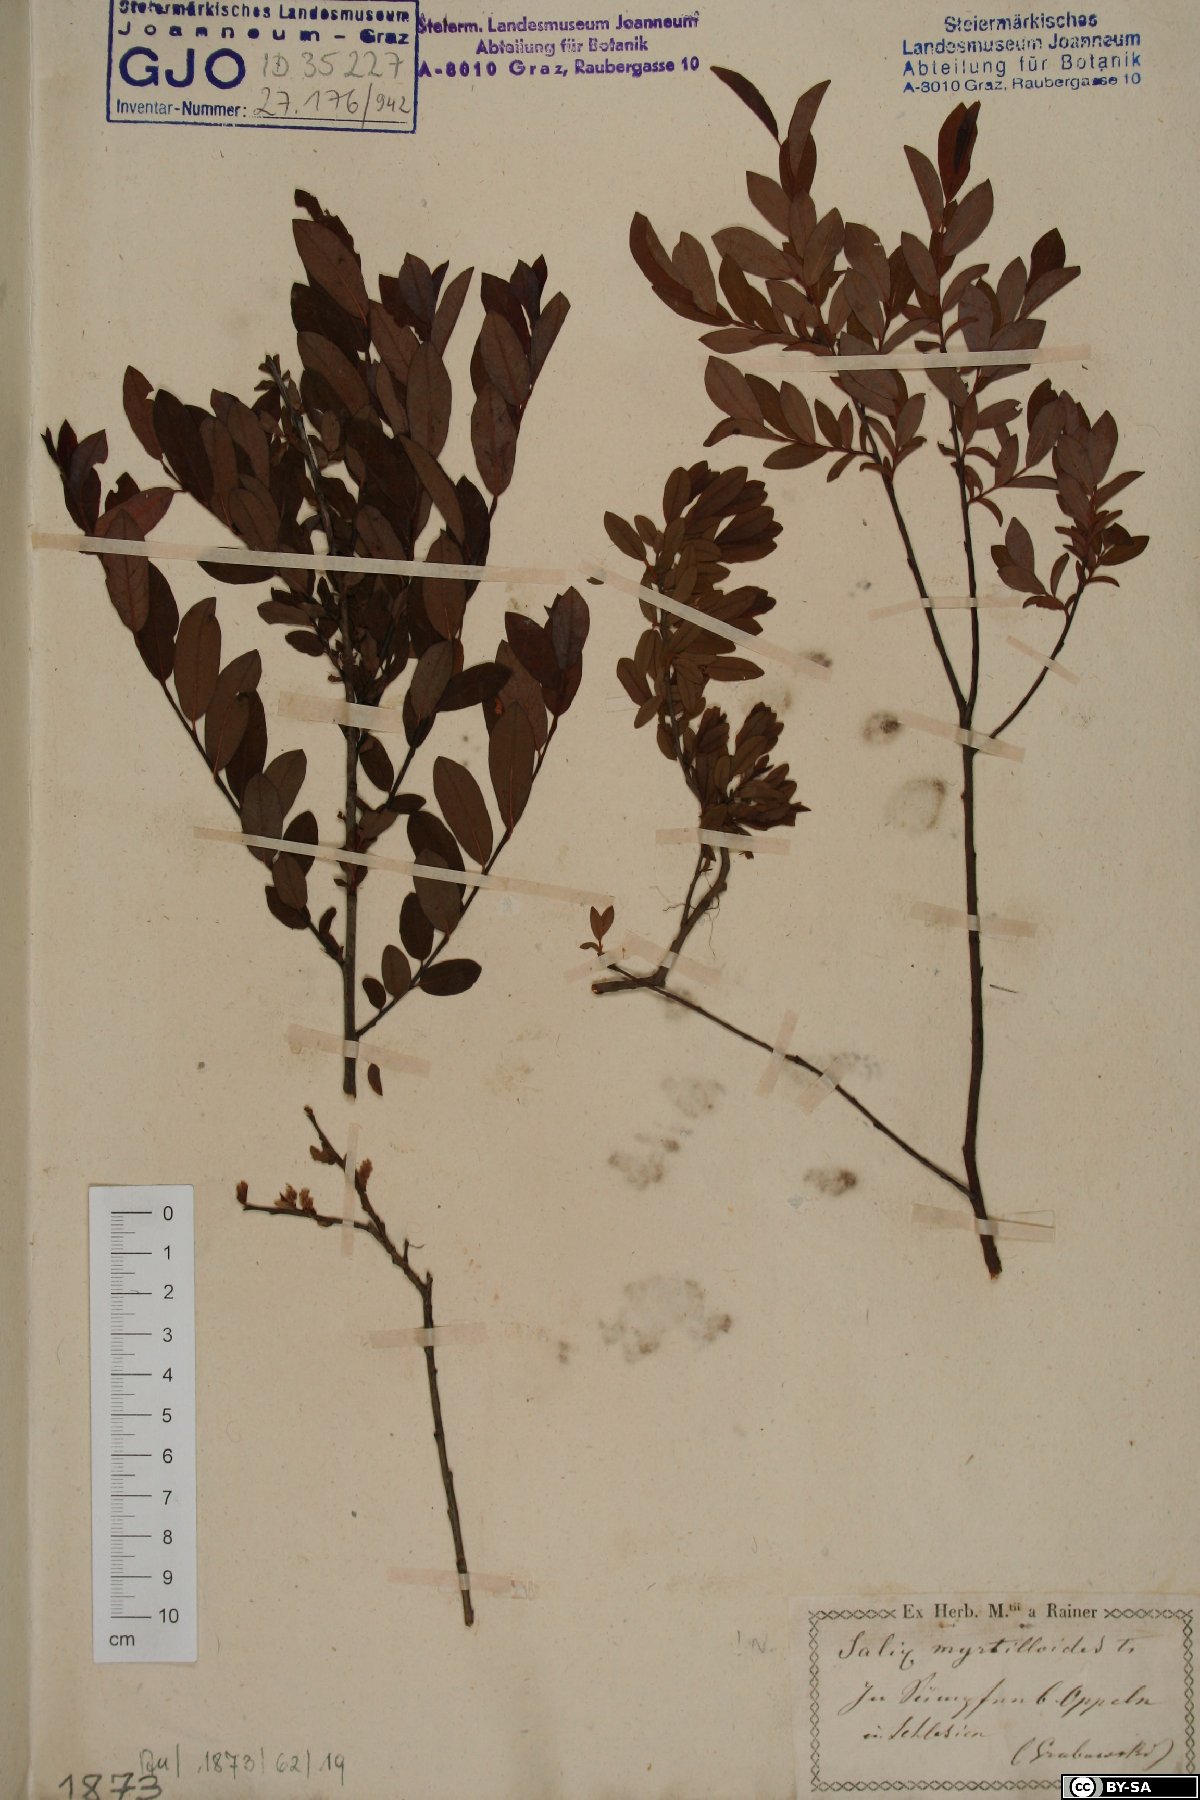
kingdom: Plantae
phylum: Tracheophyta
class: Magnoliopsida
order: Malpighiales
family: Salicaceae
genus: Salix
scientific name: Salix myrtilloides
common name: Myrtle-leaved willow
